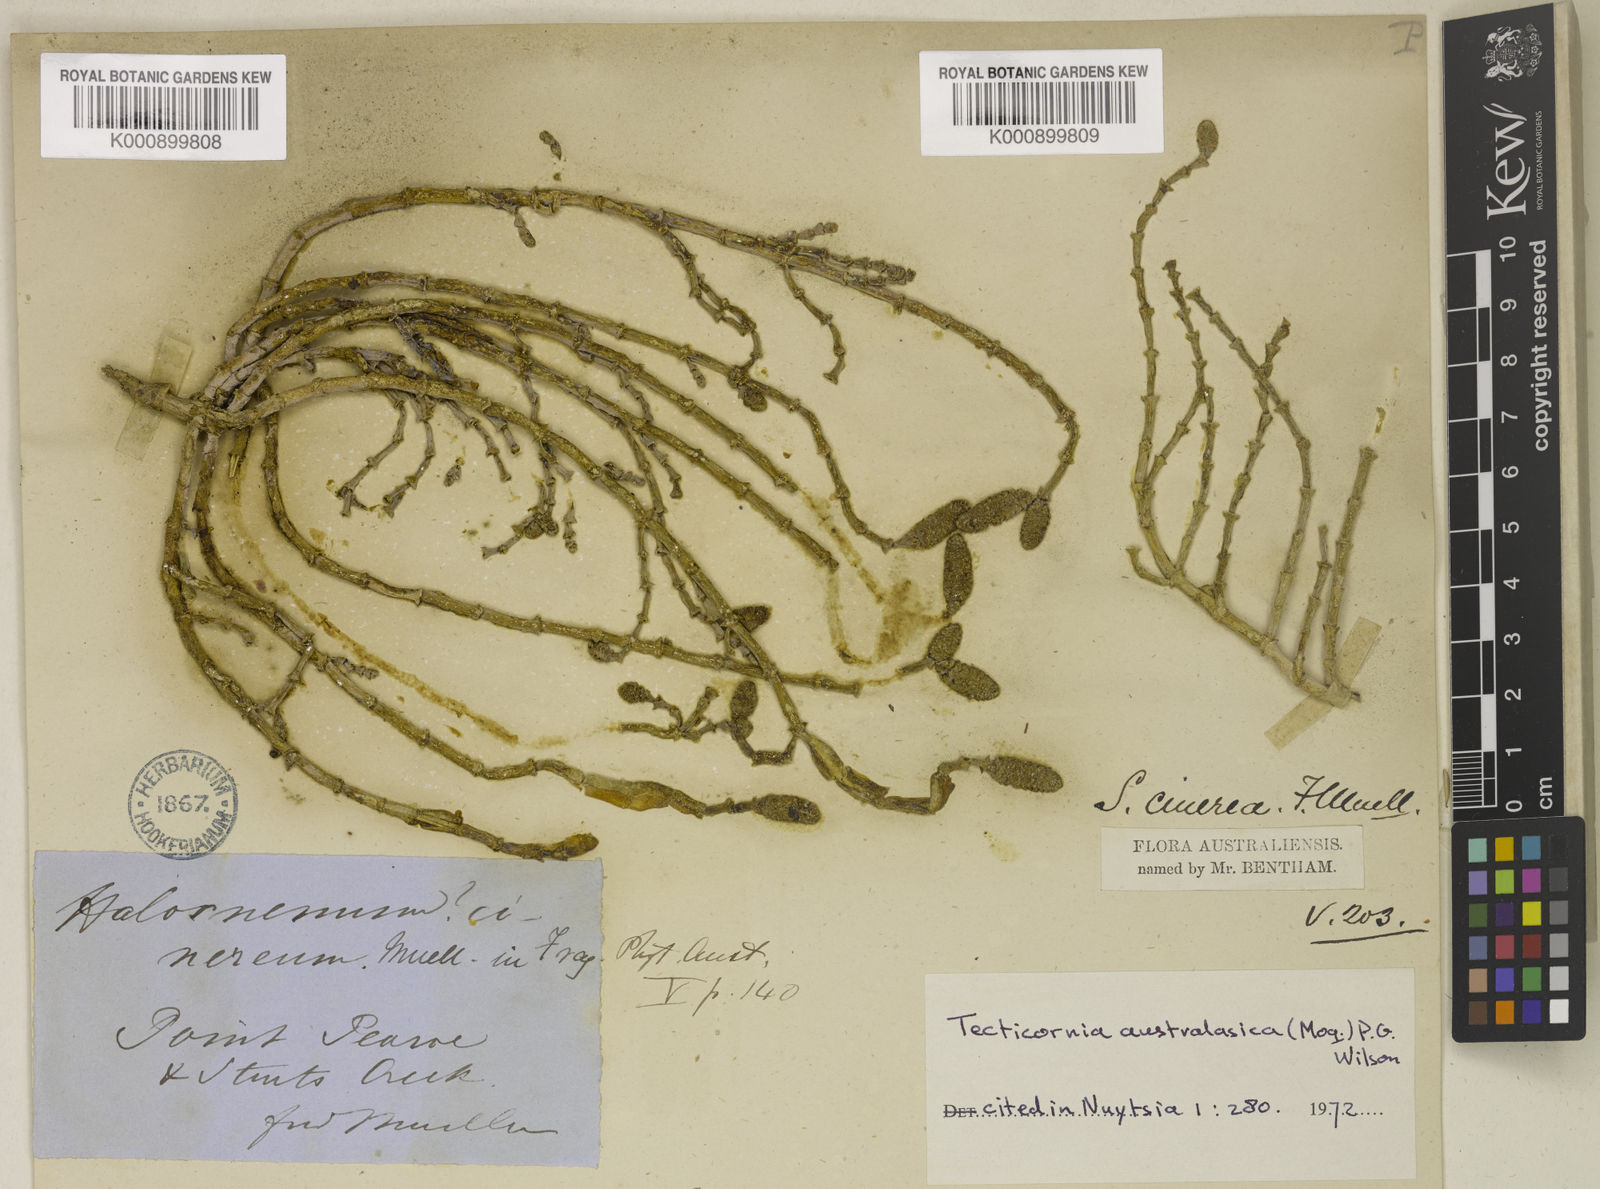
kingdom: Plantae
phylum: Tracheophyta
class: Magnoliopsida
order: Caryophyllales
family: Amaranthaceae
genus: Tecticornia
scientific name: Tecticornia australasica
